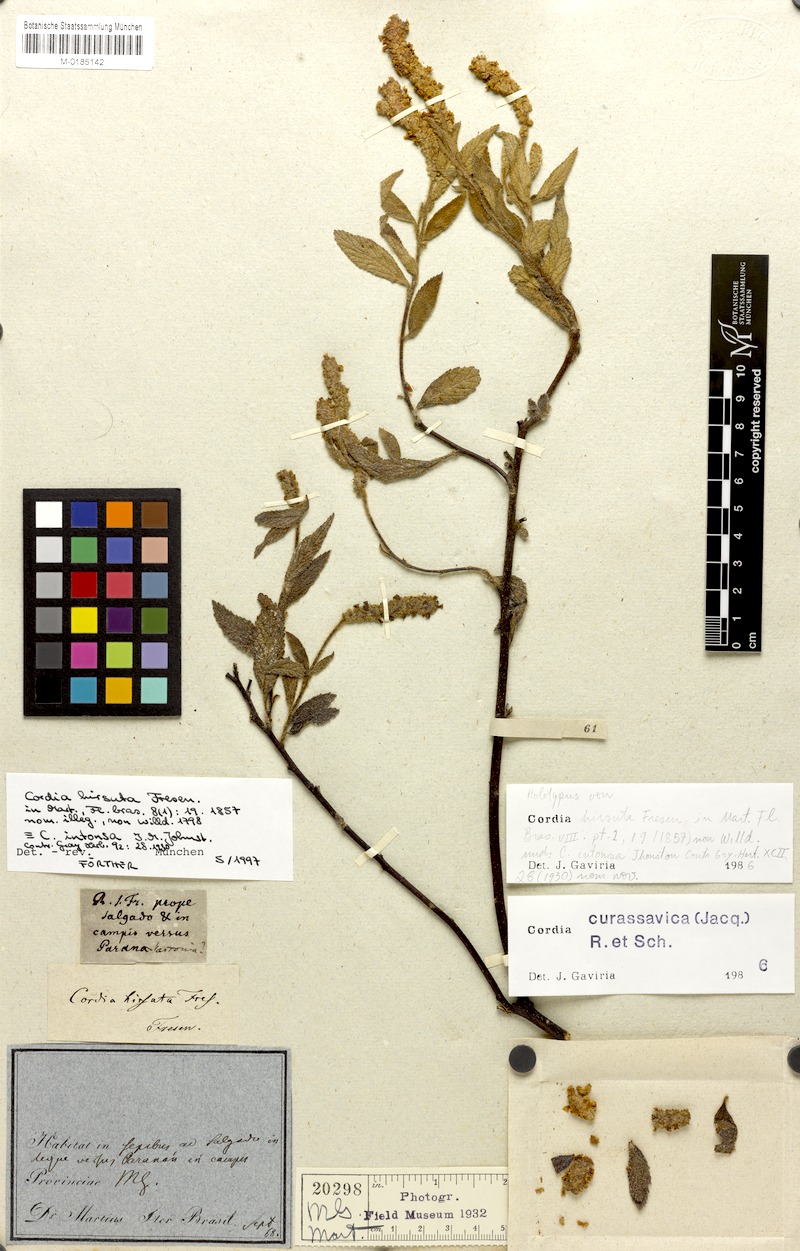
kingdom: Plantae
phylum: Tracheophyta
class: Magnoliopsida
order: Boraginales
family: Cordiaceae
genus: Varronia
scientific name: Varronia curassavica
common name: Black sage
